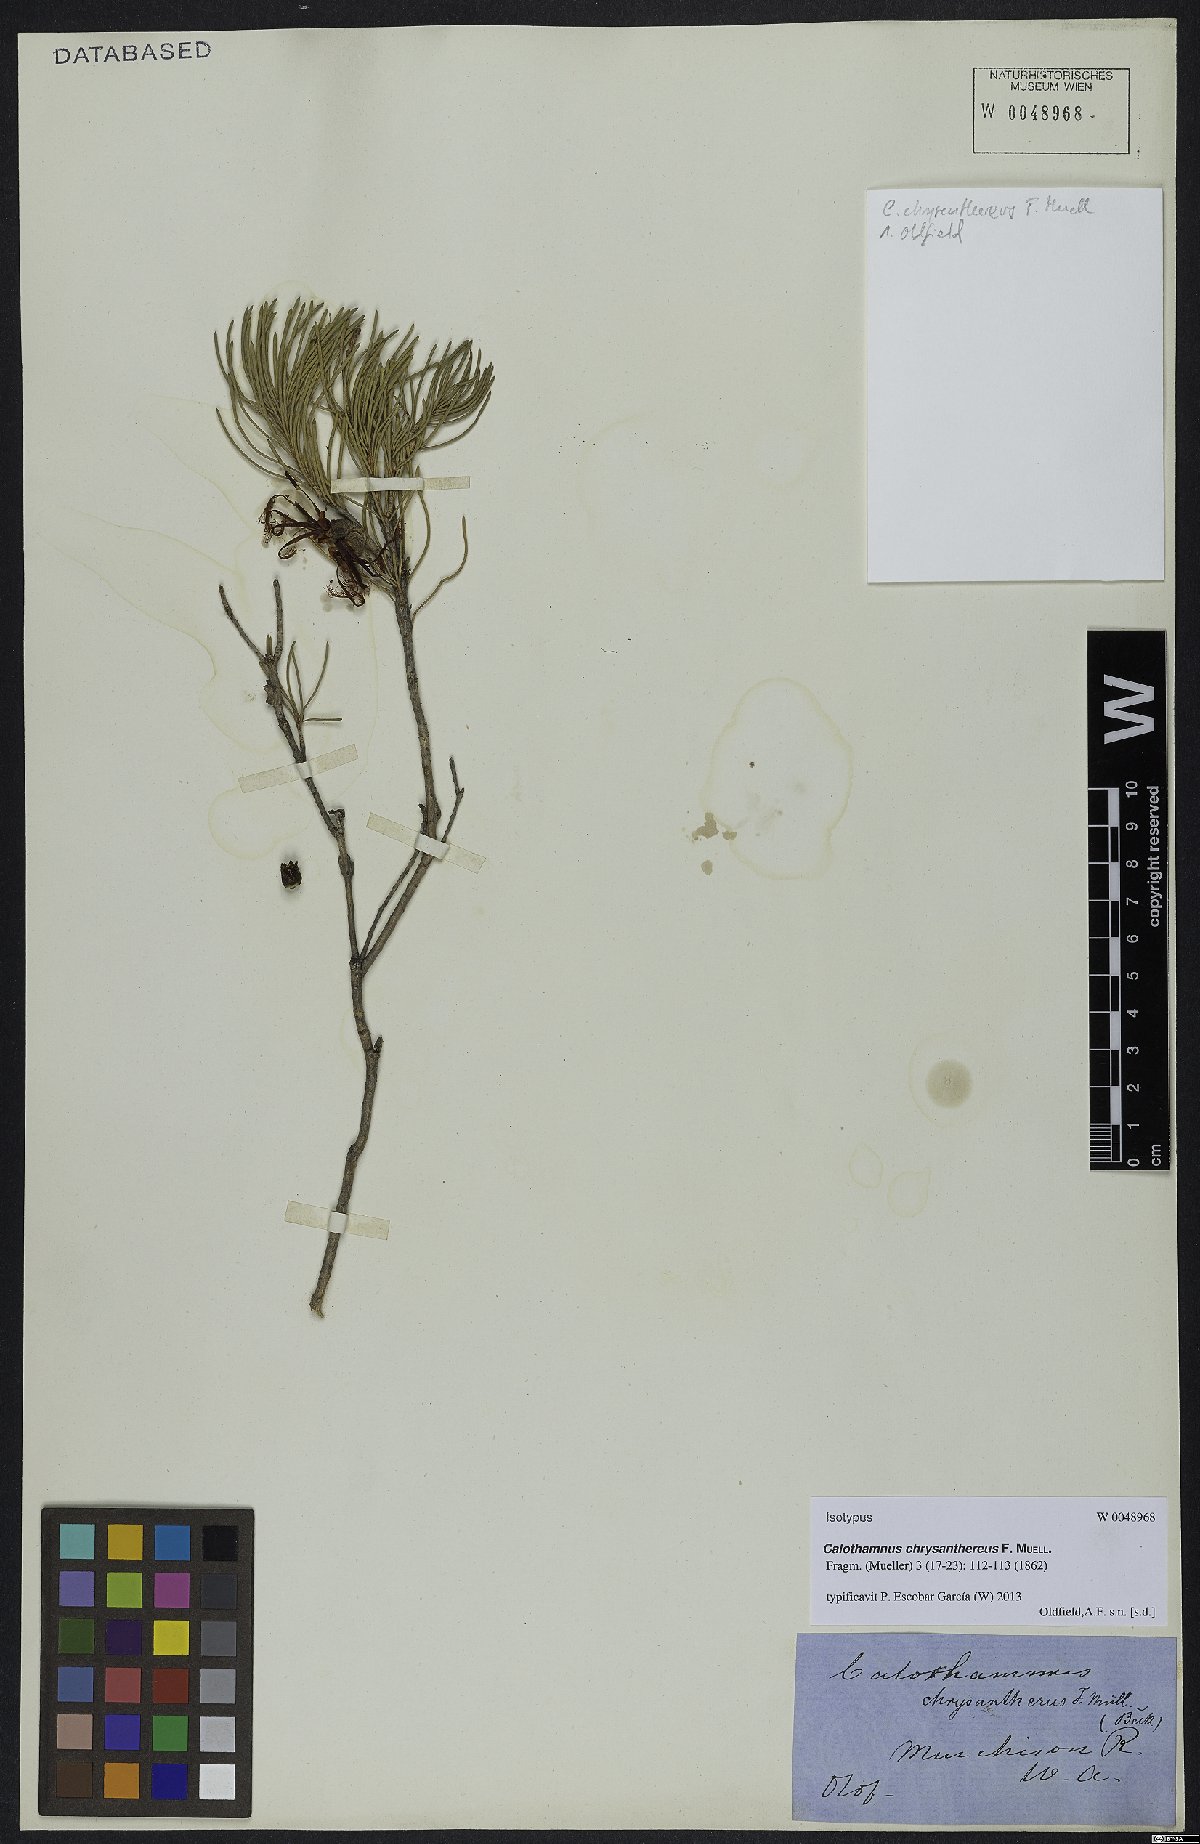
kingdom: Plantae
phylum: Tracheophyta
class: Magnoliopsida
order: Myrtales
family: Myrtaceae
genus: Melaleuca
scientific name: Melaleuca chrysantherea
